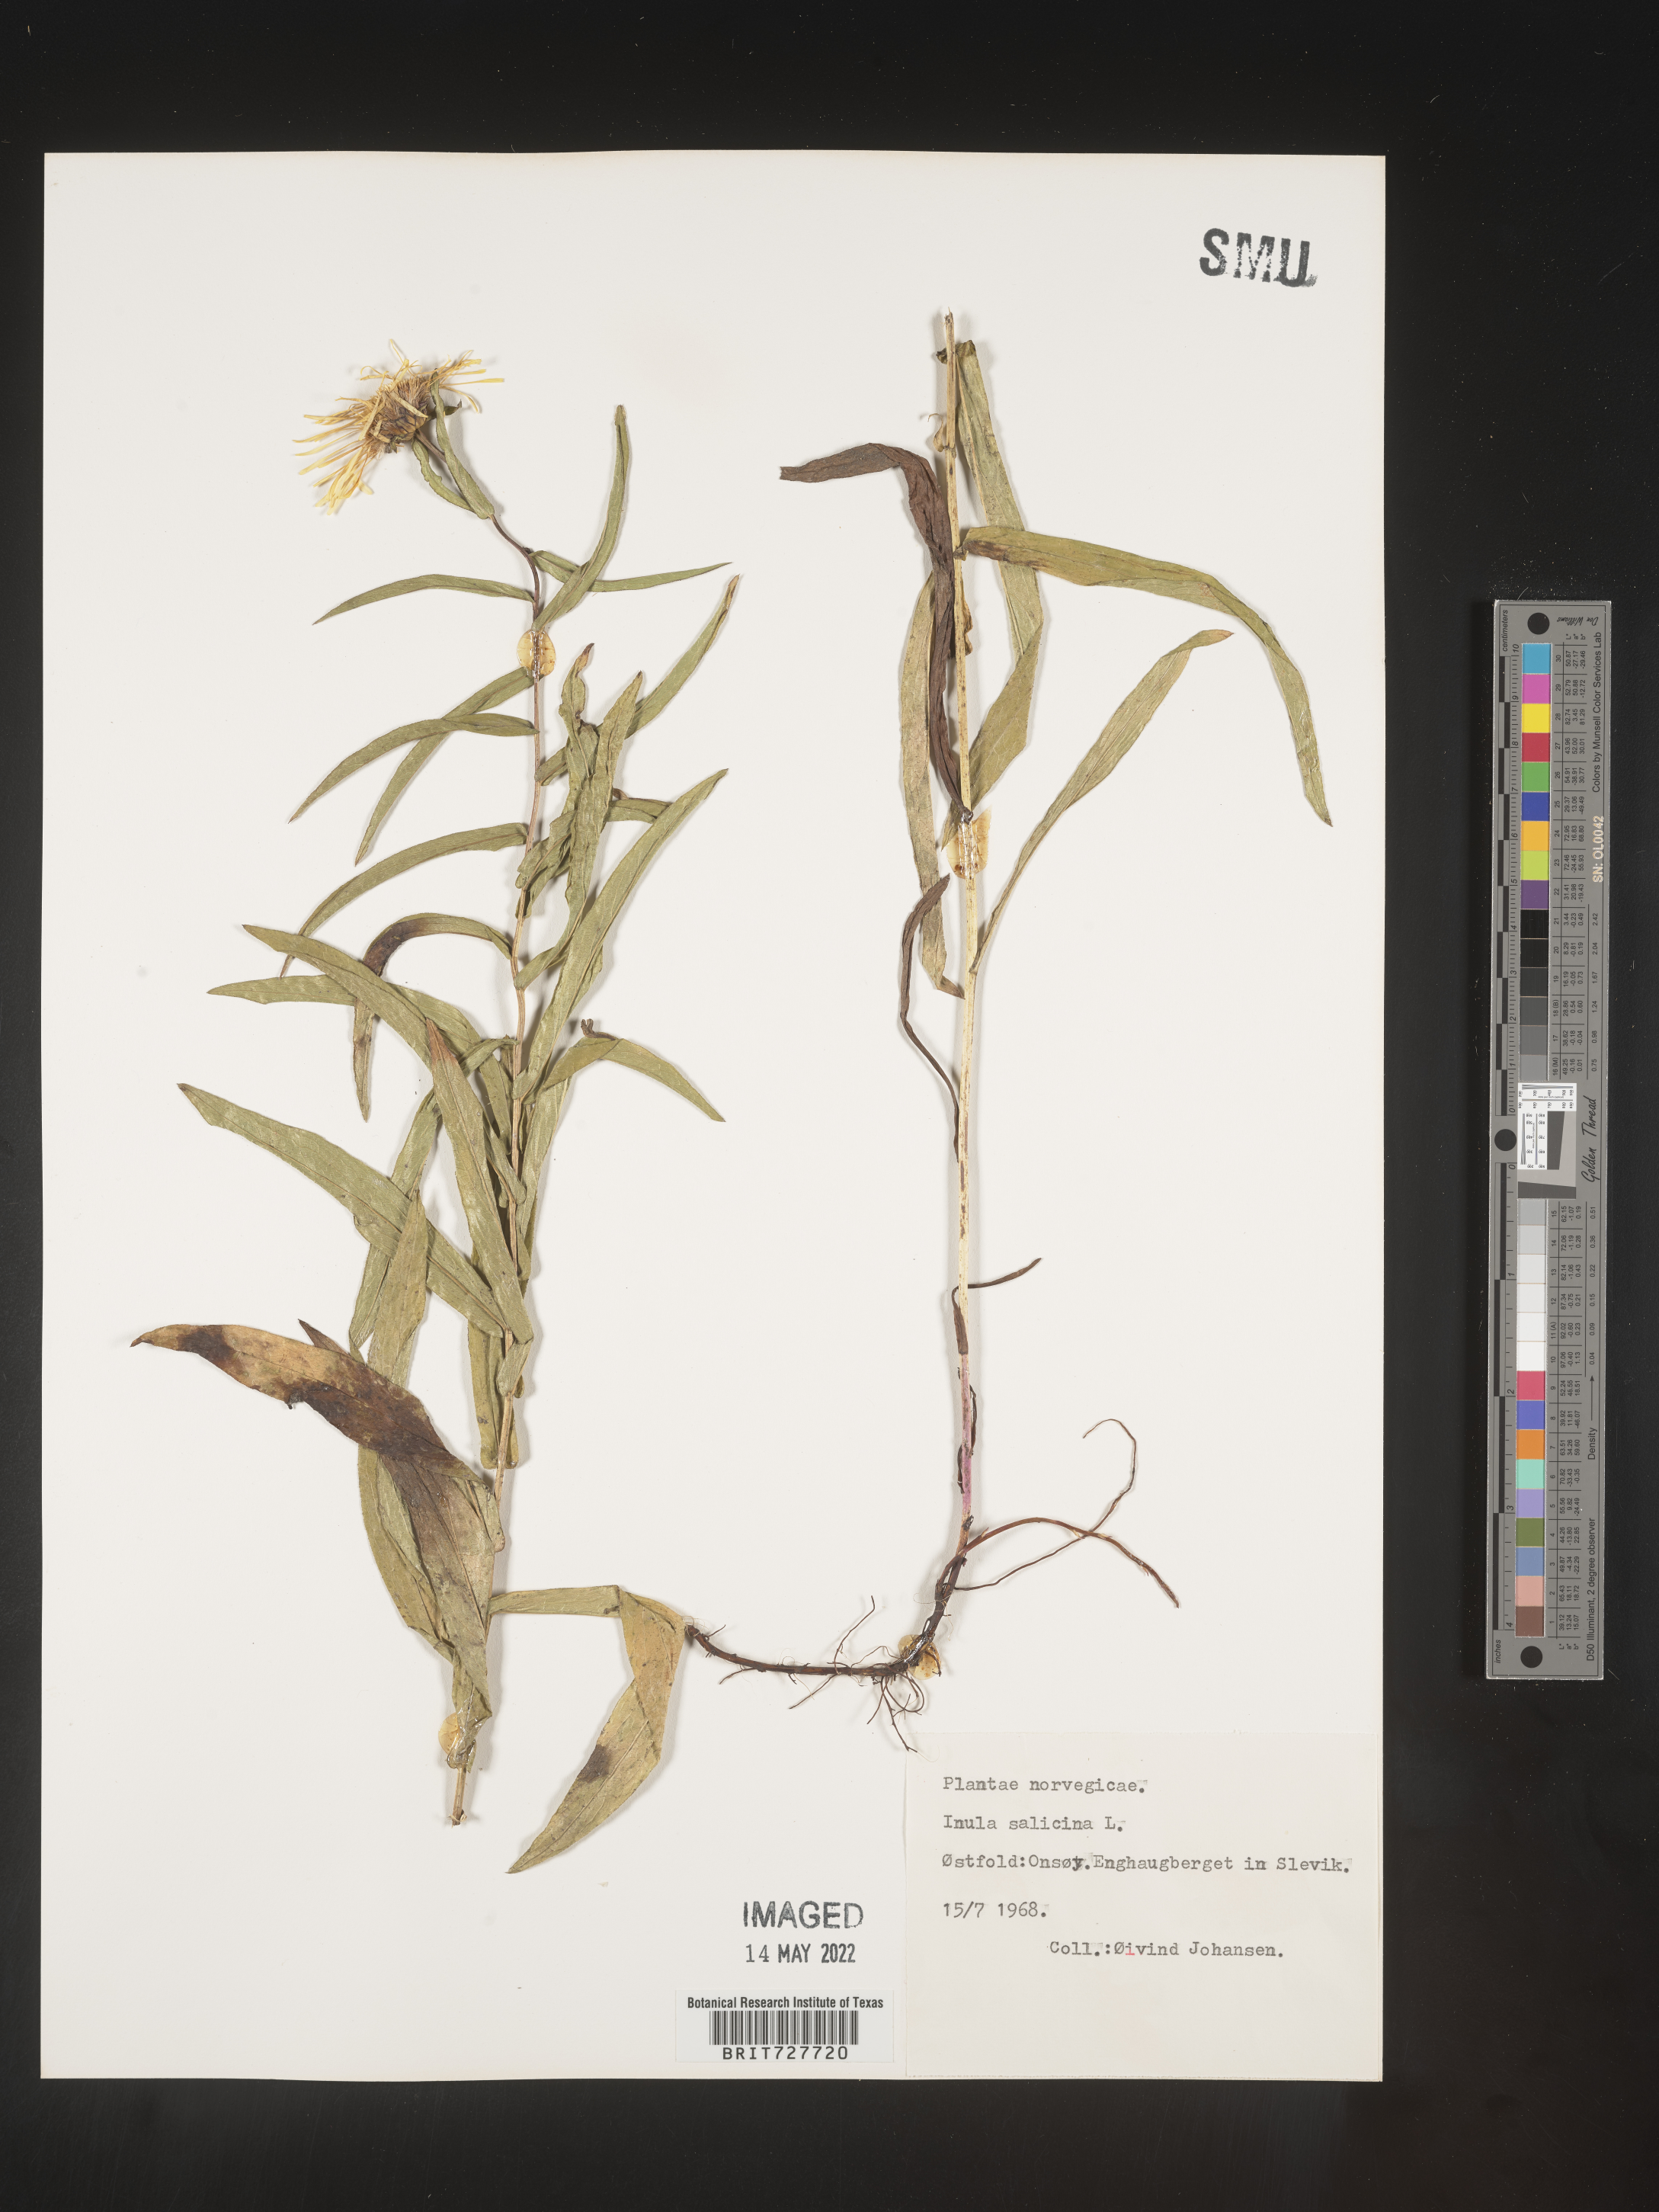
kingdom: Plantae
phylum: Tracheophyta
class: Magnoliopsida
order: Asterales
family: Asteraceae
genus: Inula
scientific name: Inula
